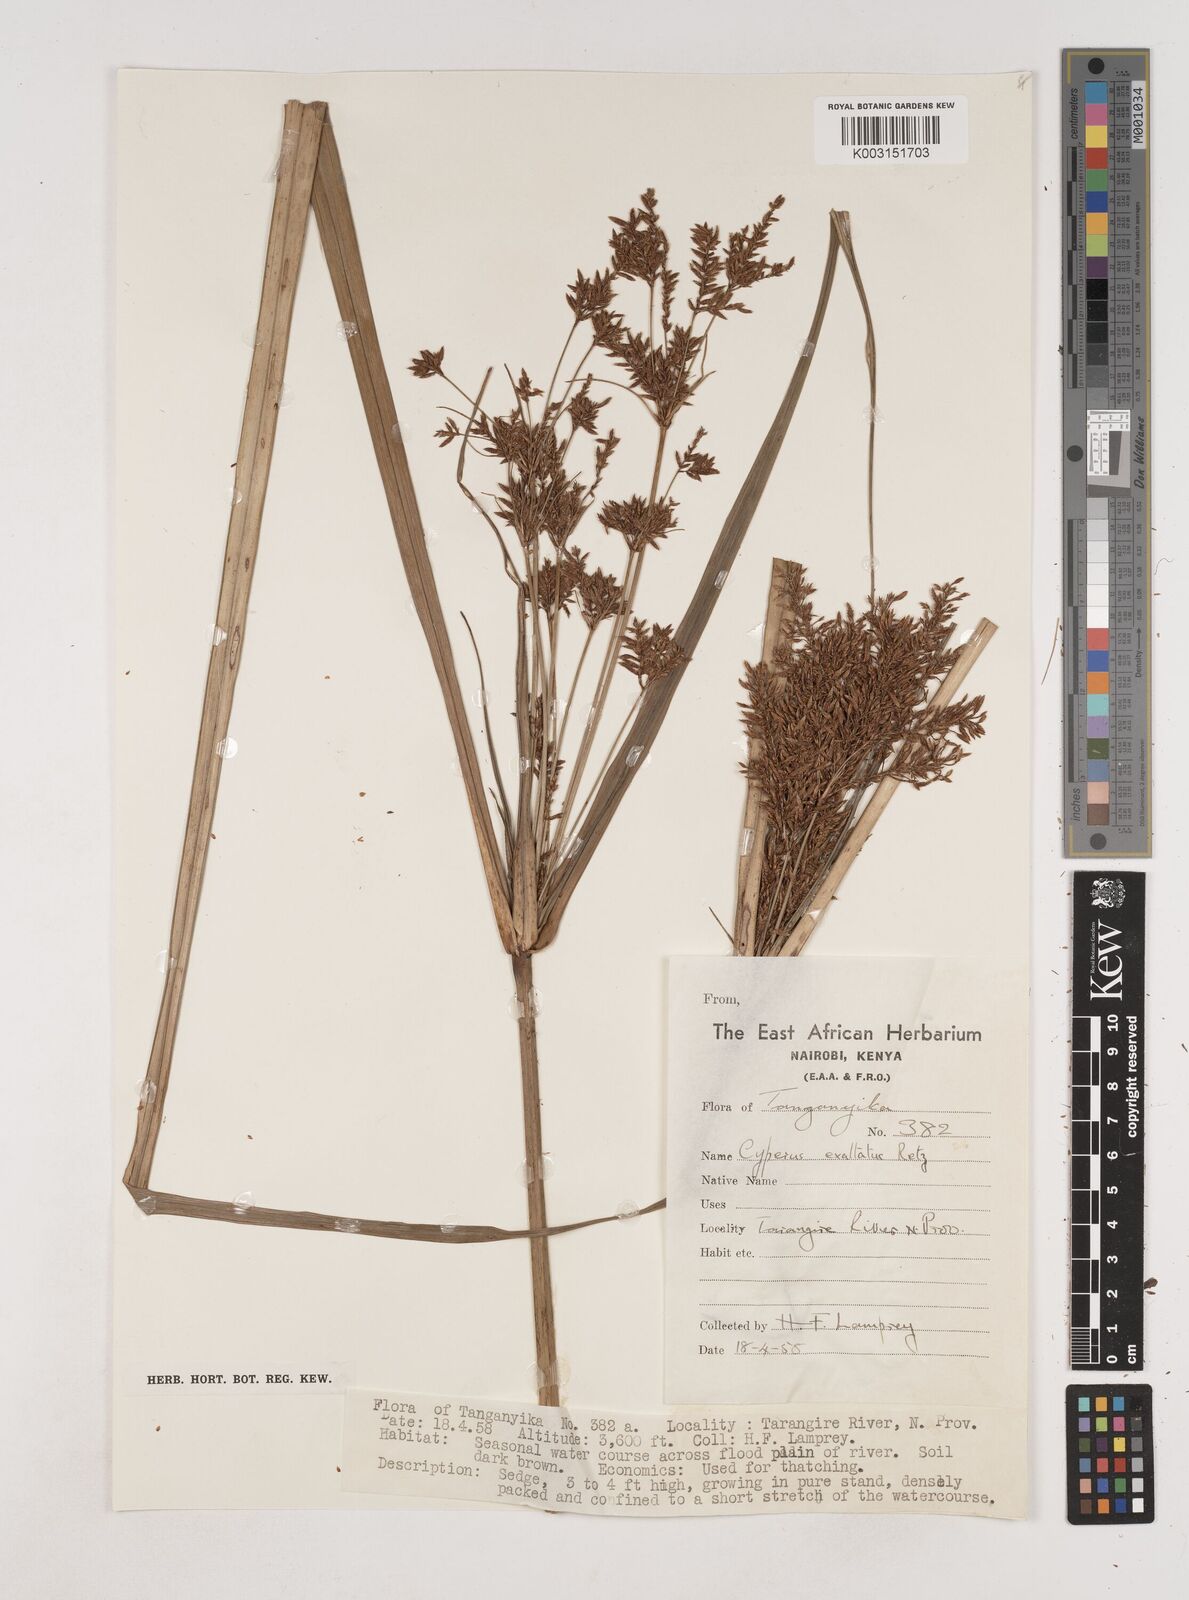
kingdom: Plantae
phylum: Tracheophyta
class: Liliopsida
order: Poales
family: Cyperaceae
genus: Cyperus
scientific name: Cyperus exaltatus
